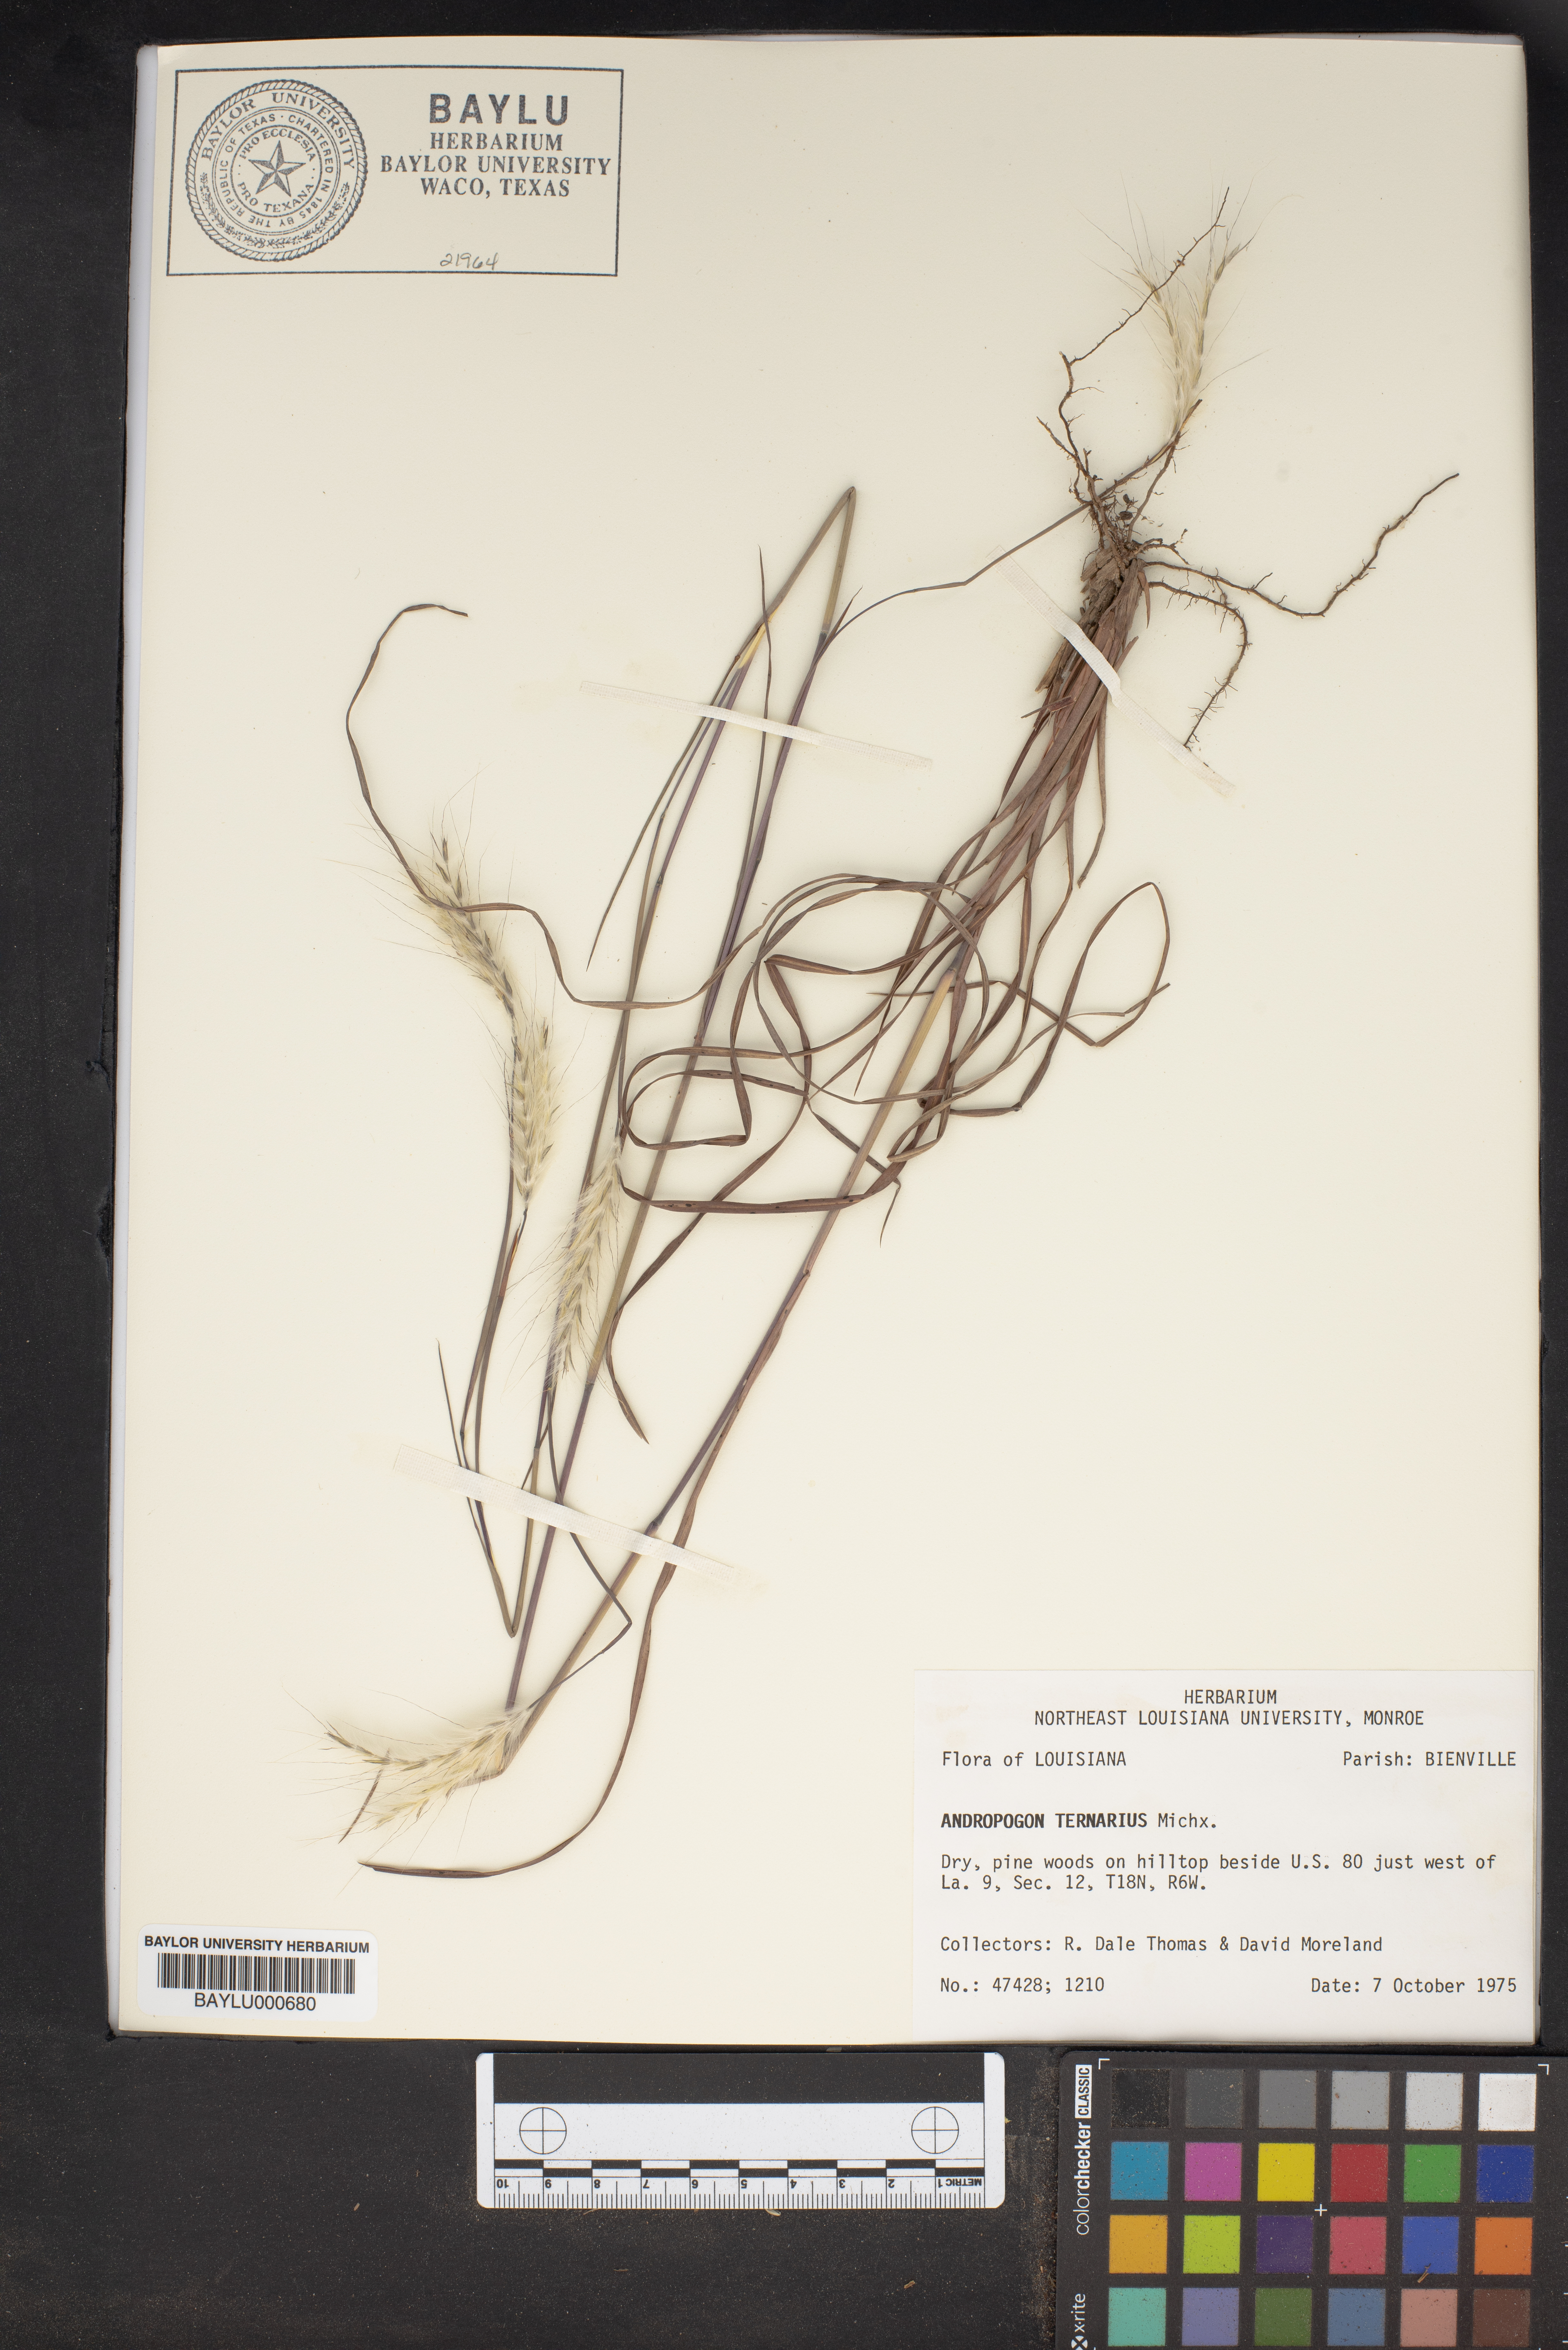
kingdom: Plantae
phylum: Tracheophyta
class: Liliopsida
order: Poales
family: Poaceae
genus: Andropogon
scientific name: Andropogon ternarius
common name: Split bluestem
